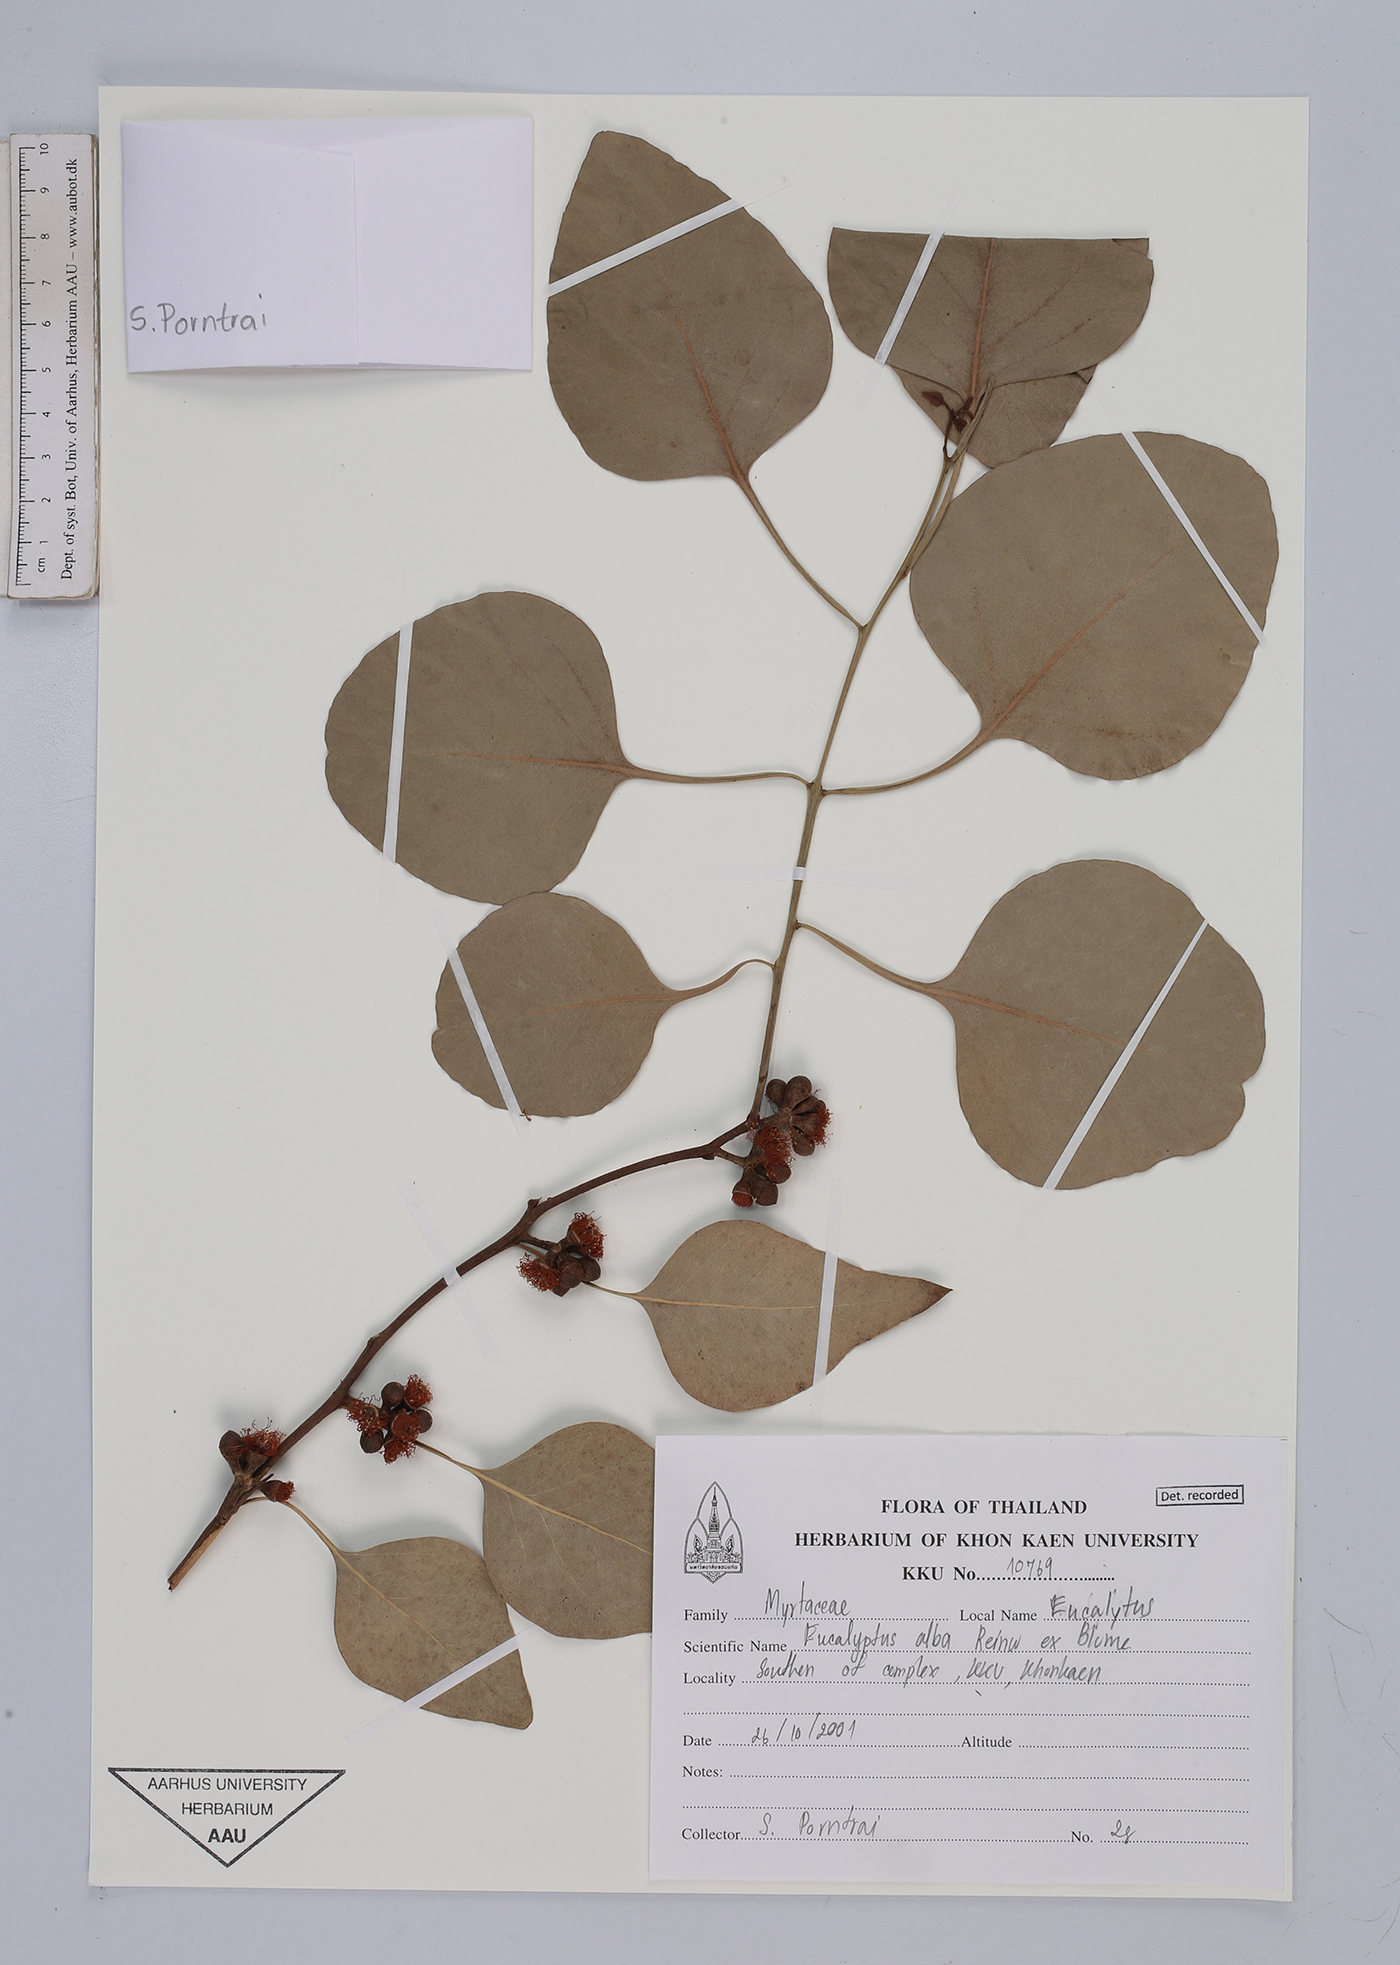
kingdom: Plantae
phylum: Tracheophyta
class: Magnoliopsida
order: Myrtales
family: Myrtaceae
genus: Eucalyptus
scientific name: Eucalyptus alba
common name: Khaki-gum
